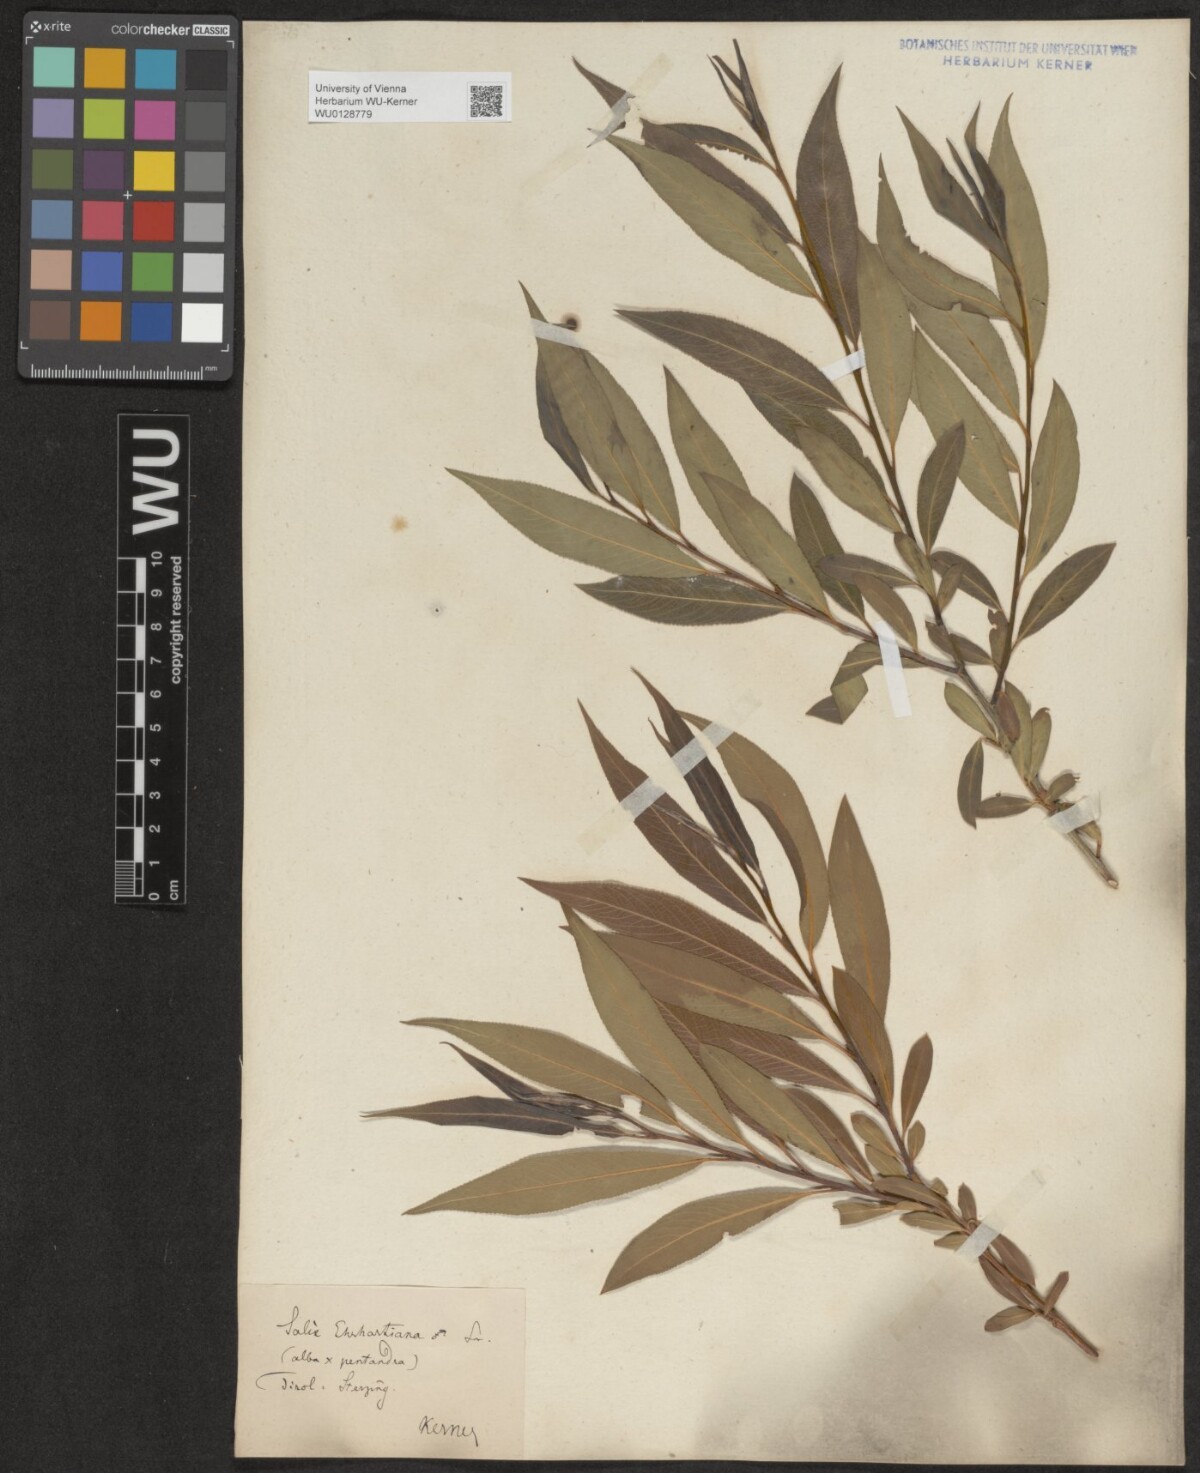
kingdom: Plantae
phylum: Tracheophyta
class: Magnoliopsida
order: Malpighiales
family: Salicaceae
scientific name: Salicaceae
